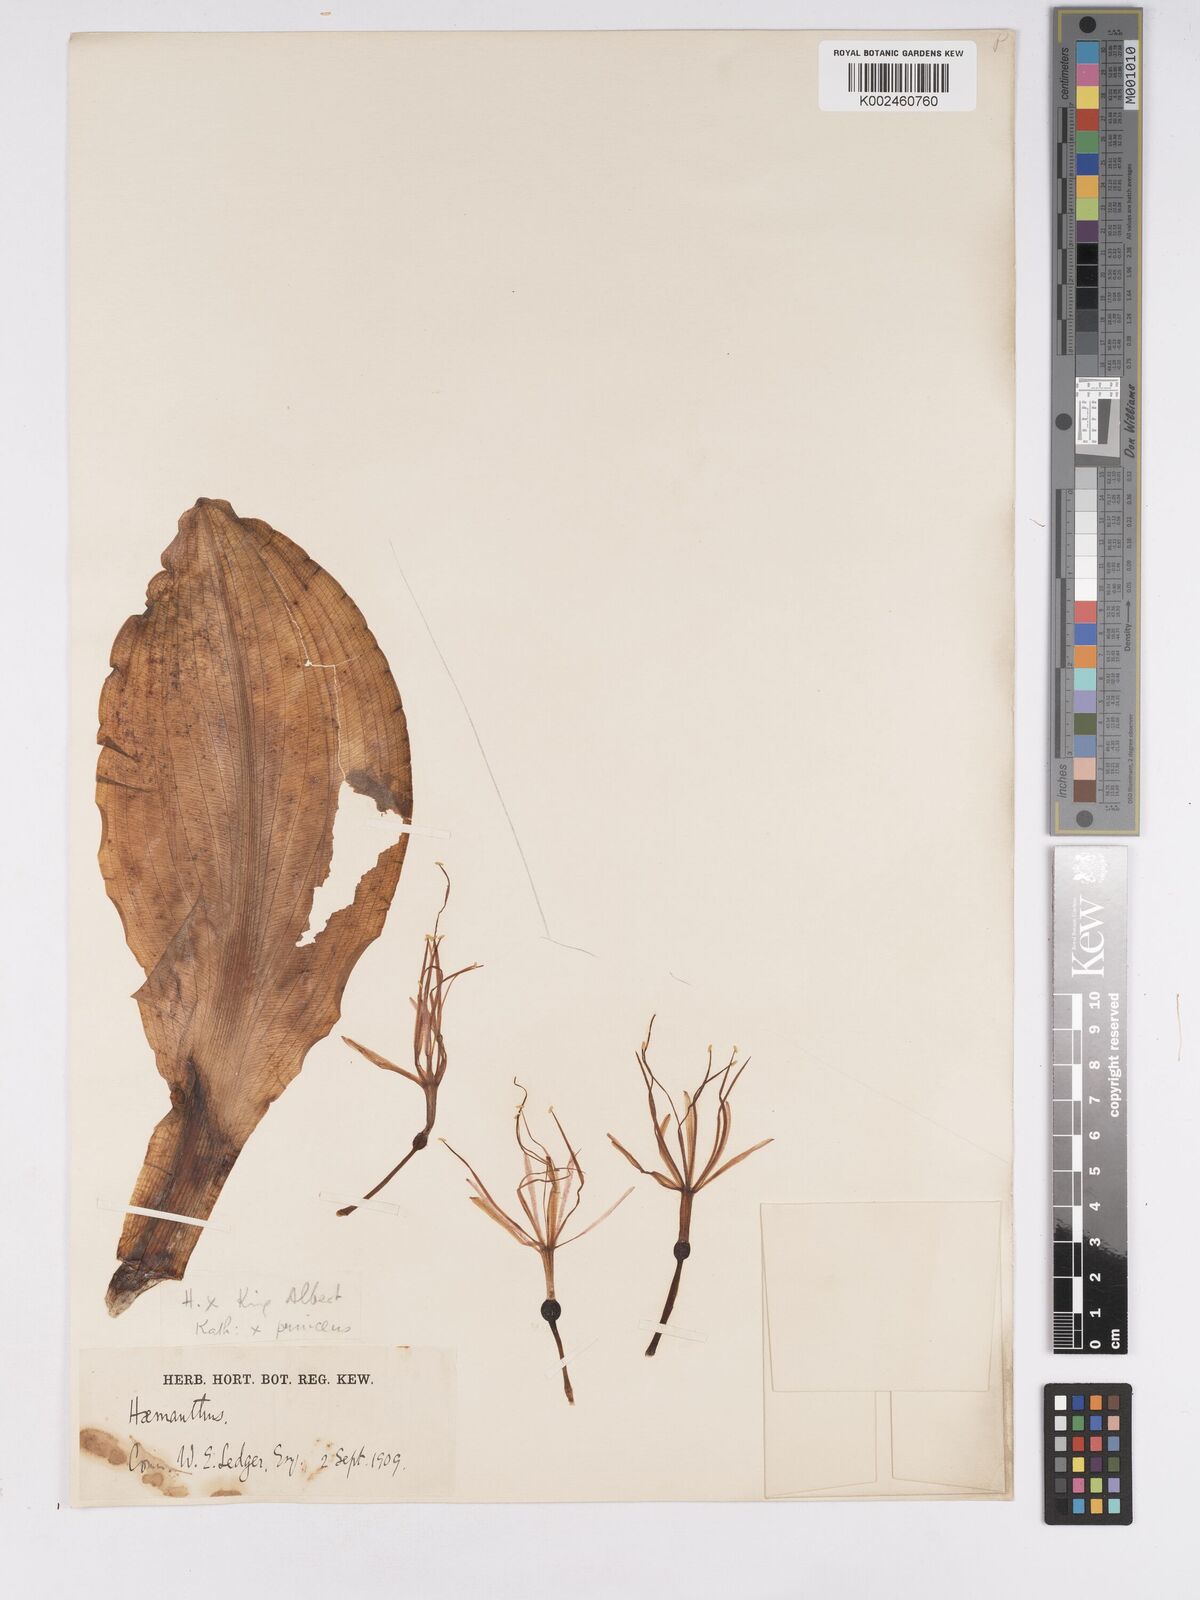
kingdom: Plantae
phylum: Tracheophyta
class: Liliopsida
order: Asparagales
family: Amaryllidaceae
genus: Scadoxus
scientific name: Scadoxus
